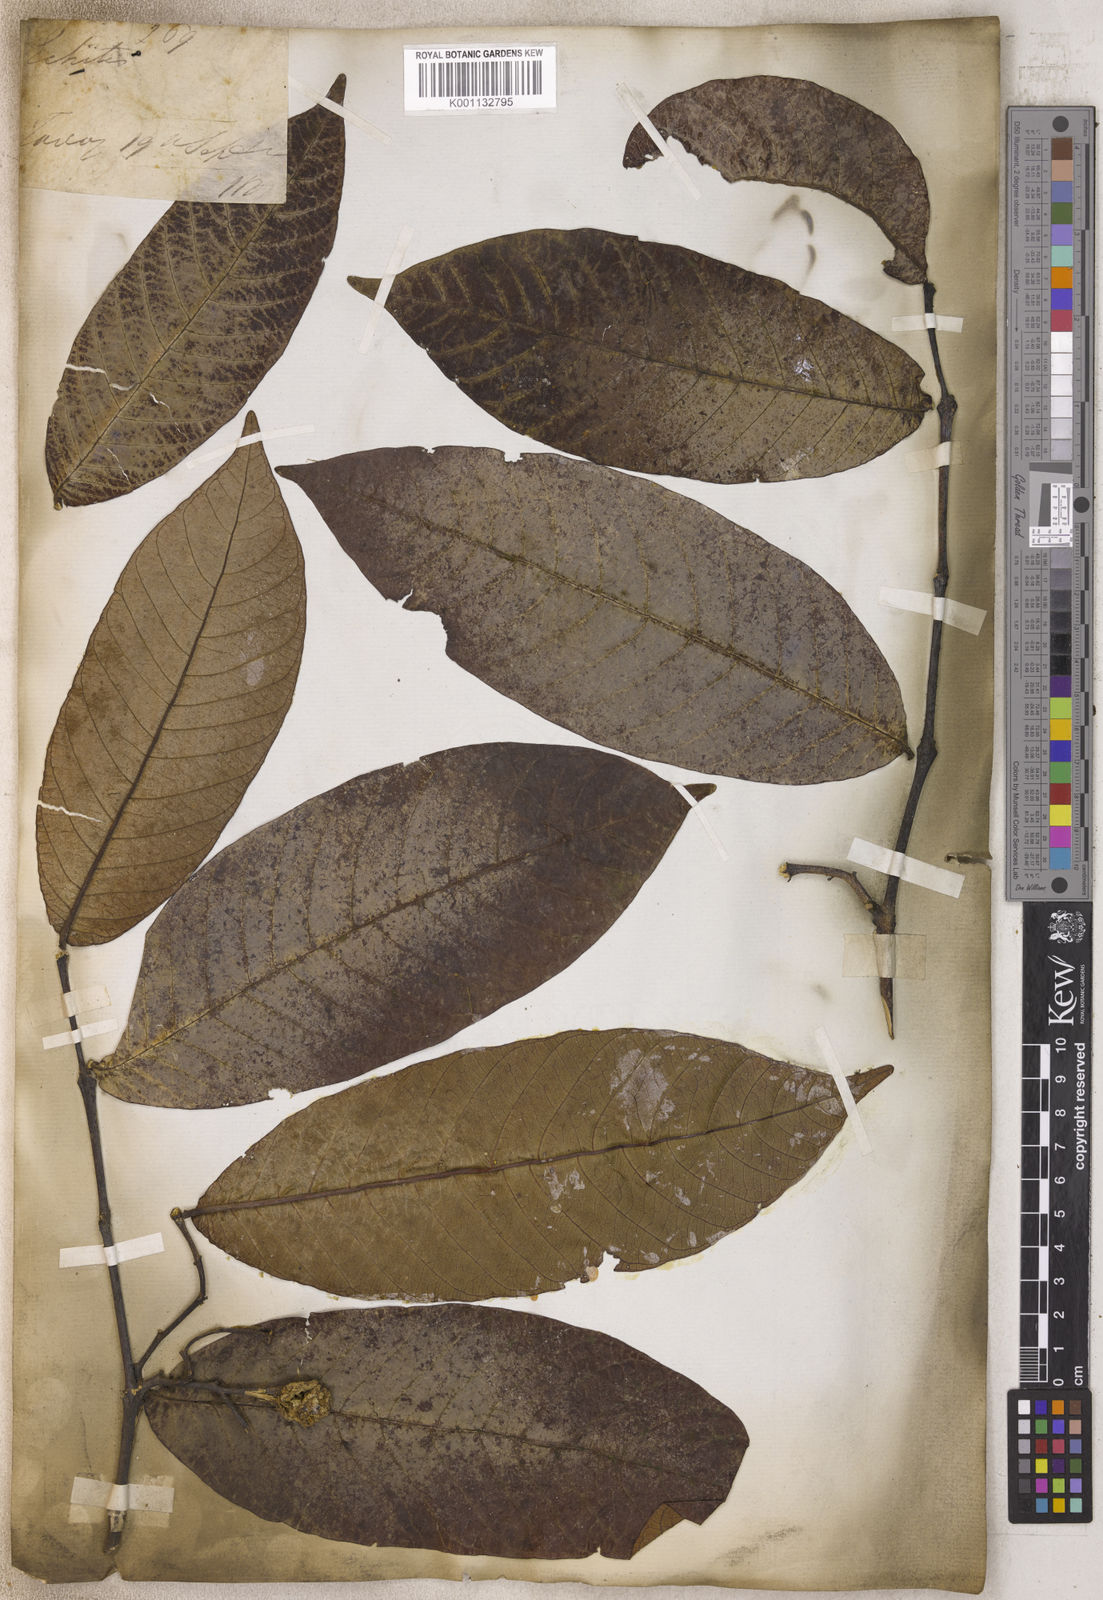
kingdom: Plantae
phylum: Tracheophyta
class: Magnoliopsida
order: Gentianales
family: Apocynaceae
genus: Echites
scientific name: Echites
